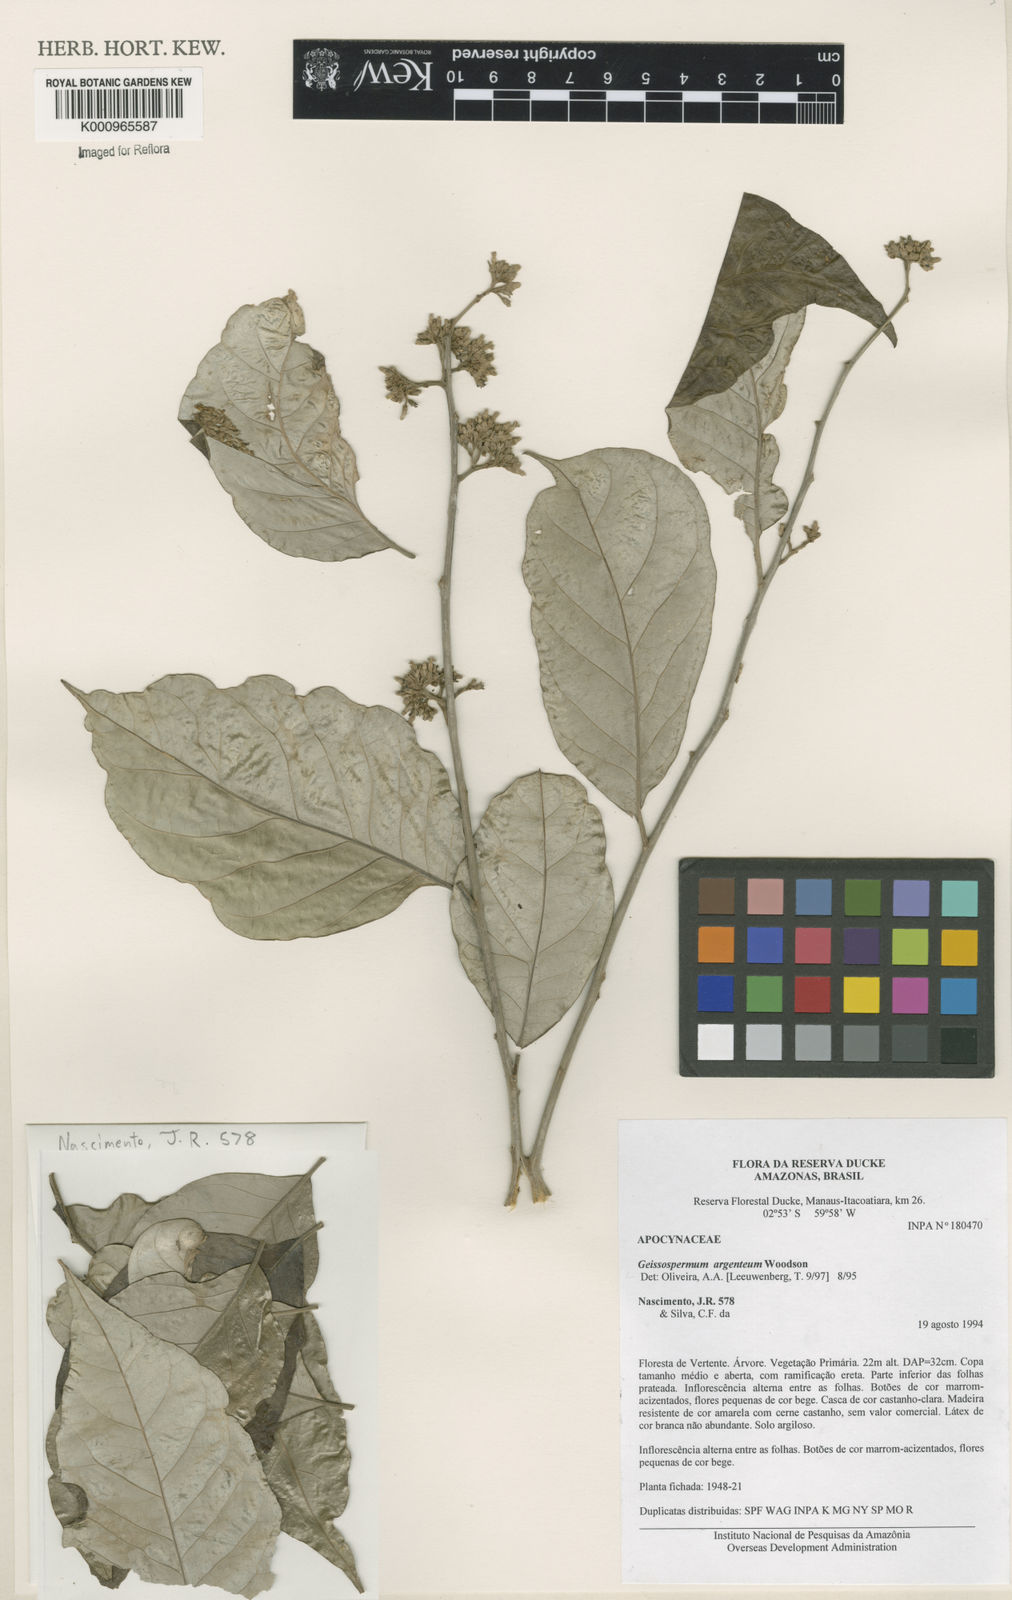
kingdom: Plantae
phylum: Tracheophyta
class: Magnoliopsida
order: Gentianales
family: Apocynaceae
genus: Geissospermum
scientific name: Geissospermum argenteum
